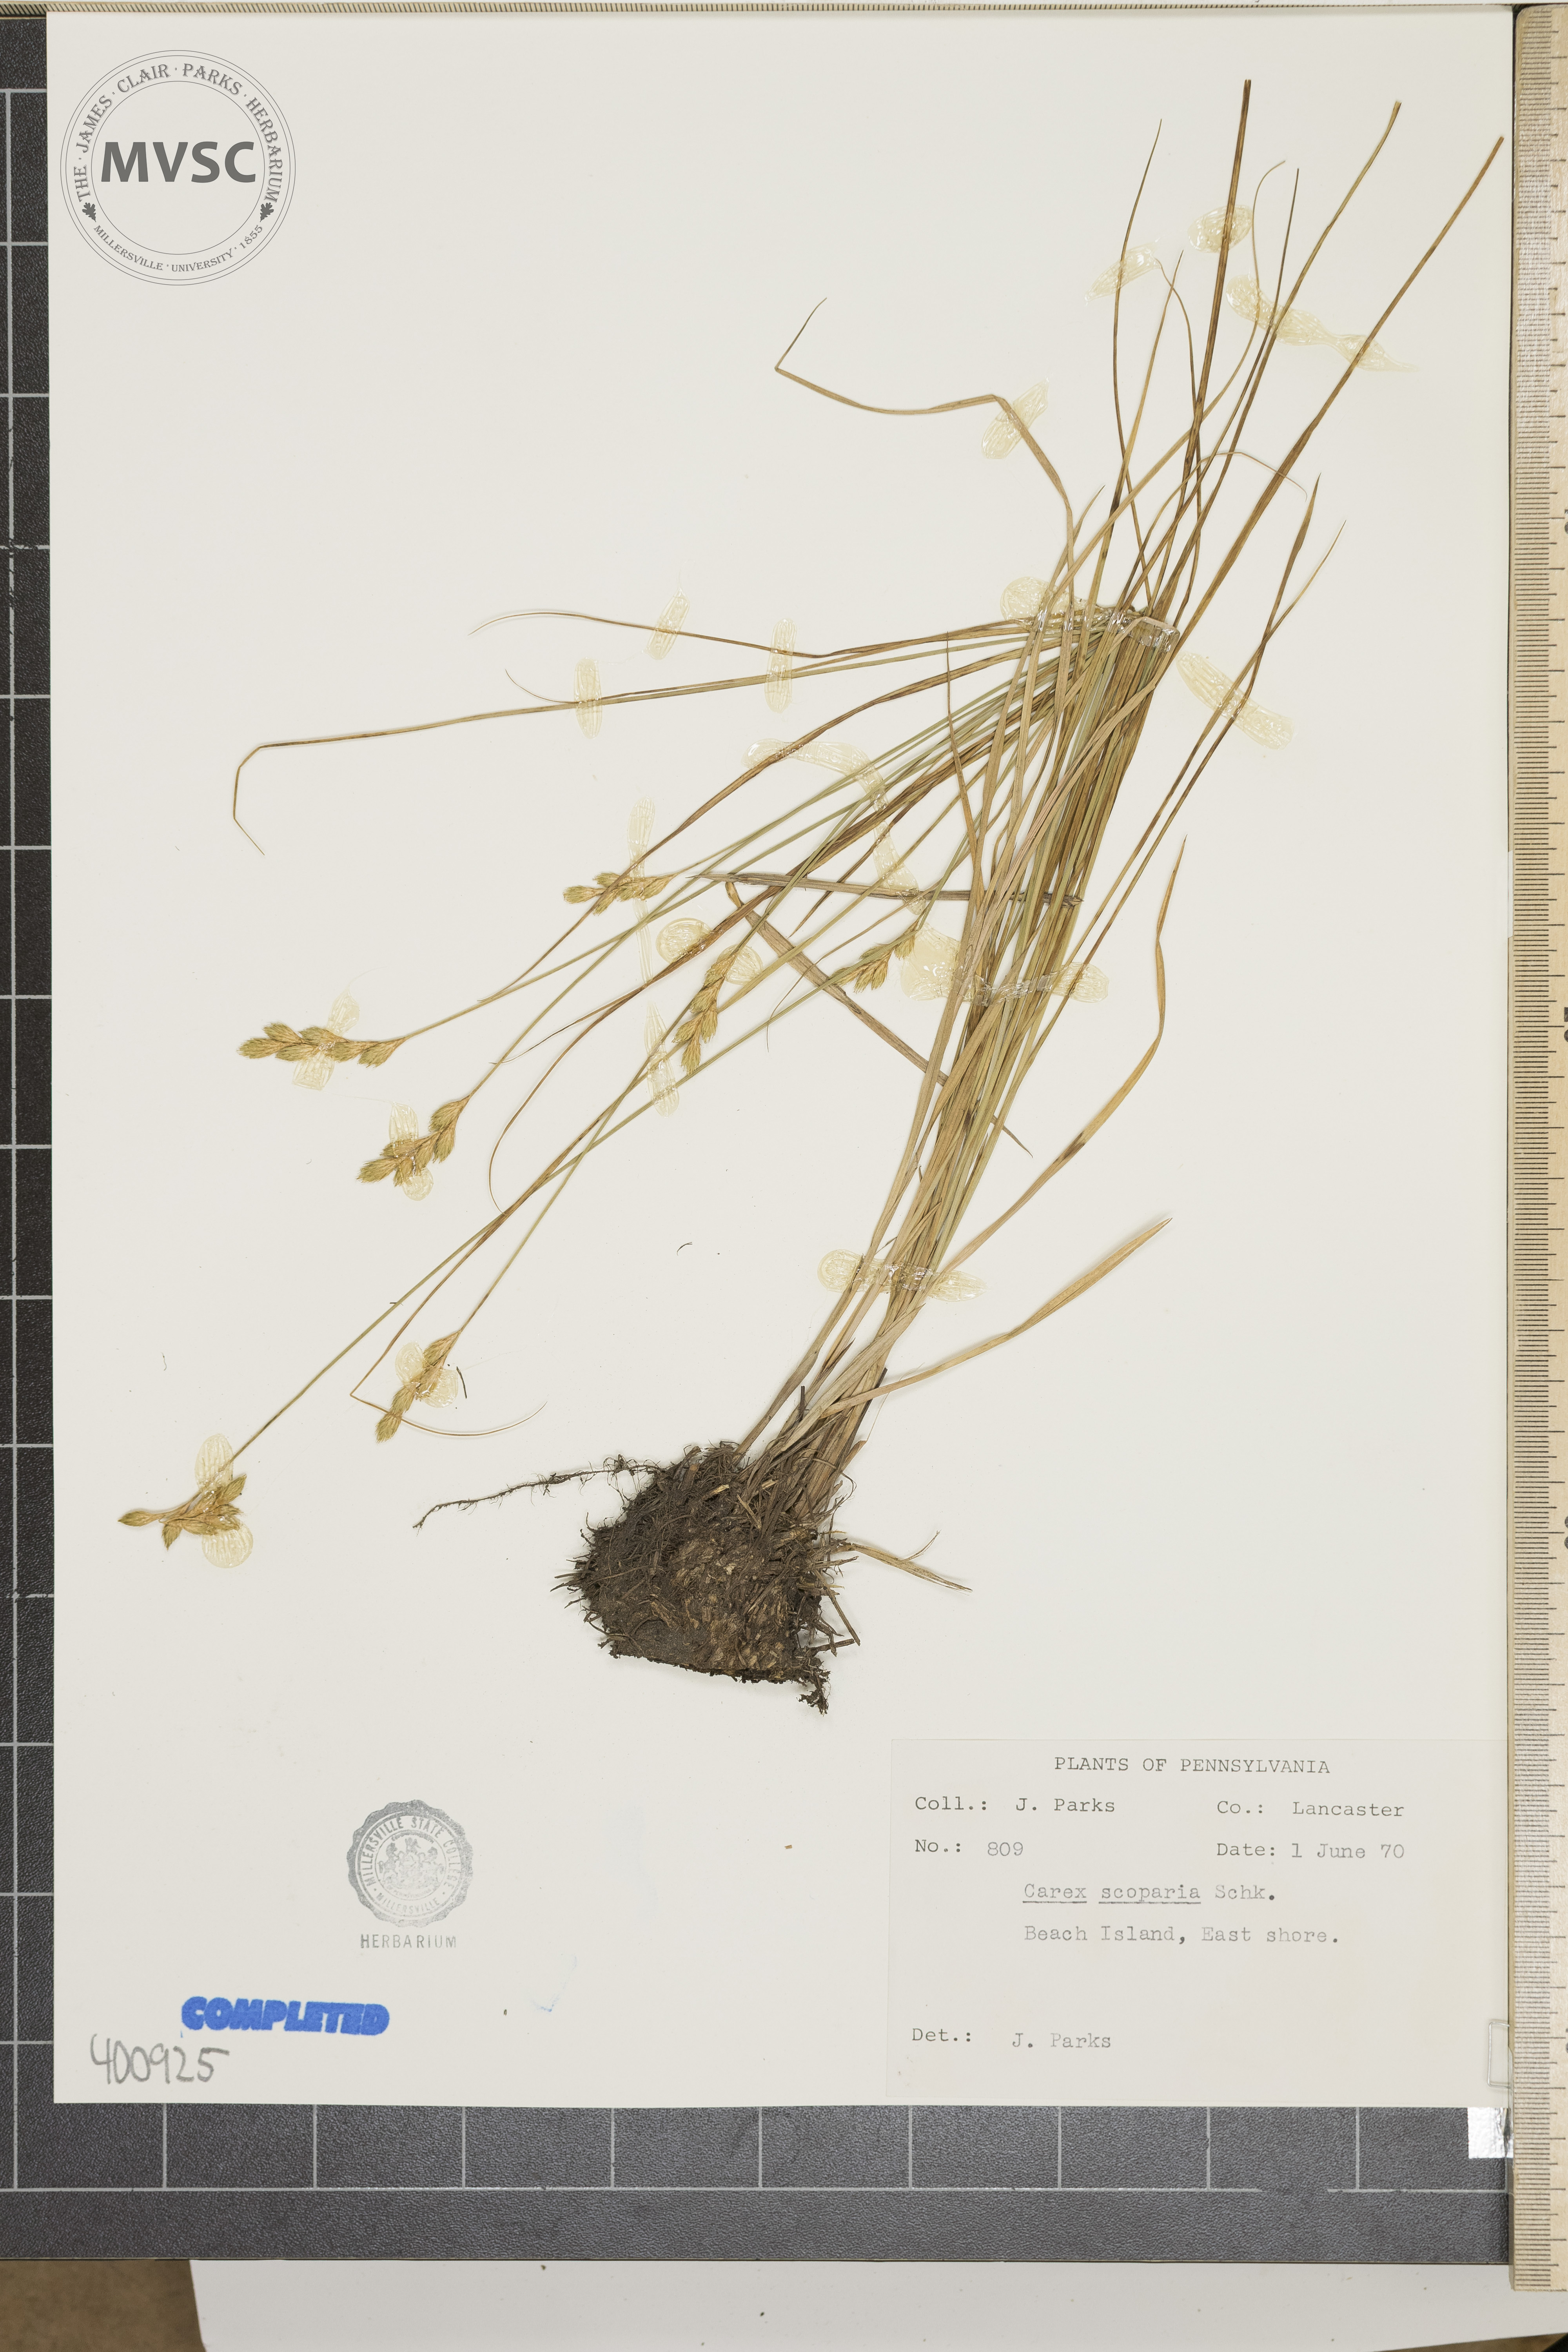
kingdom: Plantae
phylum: Tracheophyta
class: Liliopsida
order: Poales
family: Cyperaceae
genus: Carex
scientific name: Carex scoparia
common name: sedge
